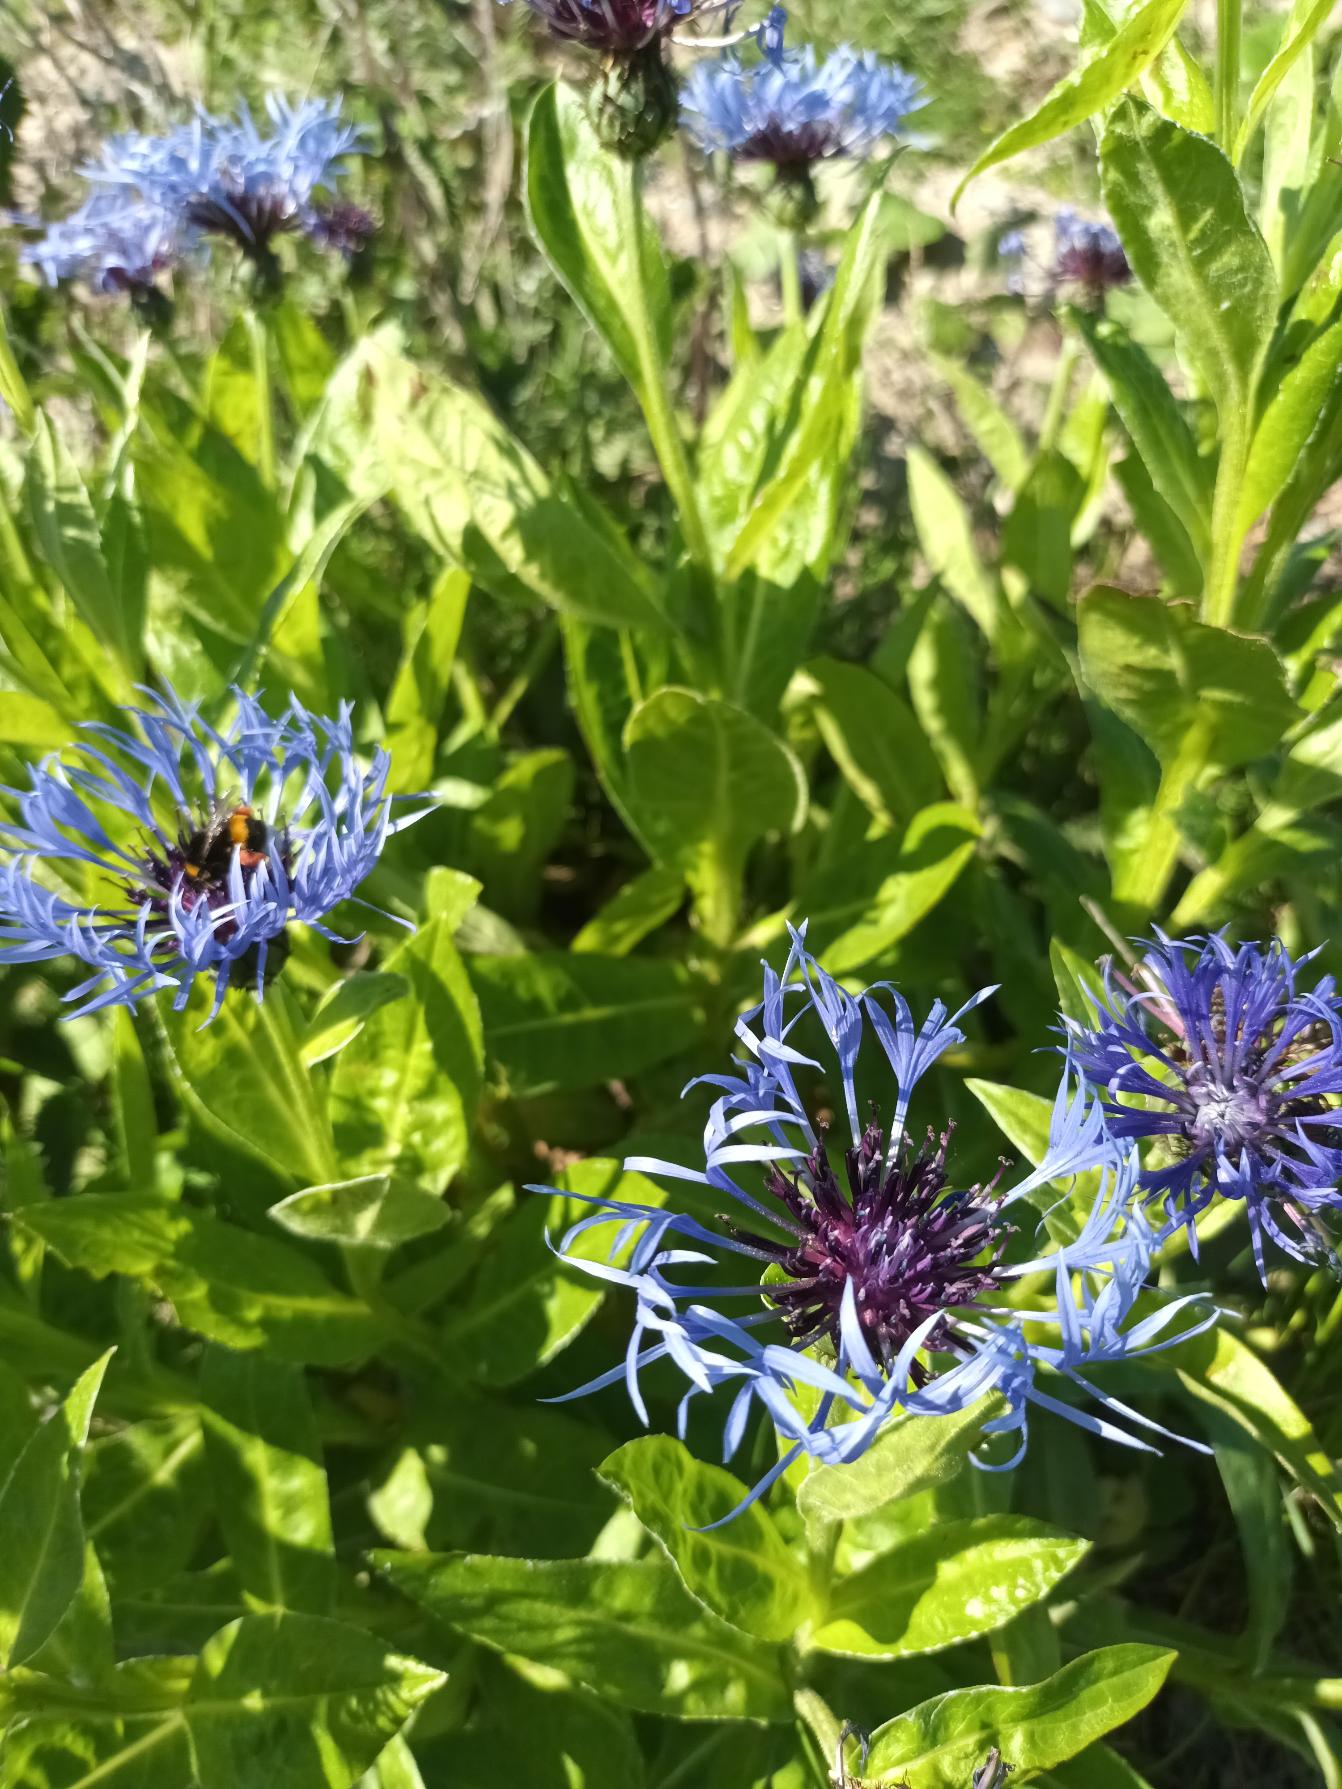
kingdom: Plantae
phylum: Tracheophyta
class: Magnoliopsida
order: Asterales
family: Asteraceae
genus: Centaurea
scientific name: Centaurea montana
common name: Bjerg-knopurt
